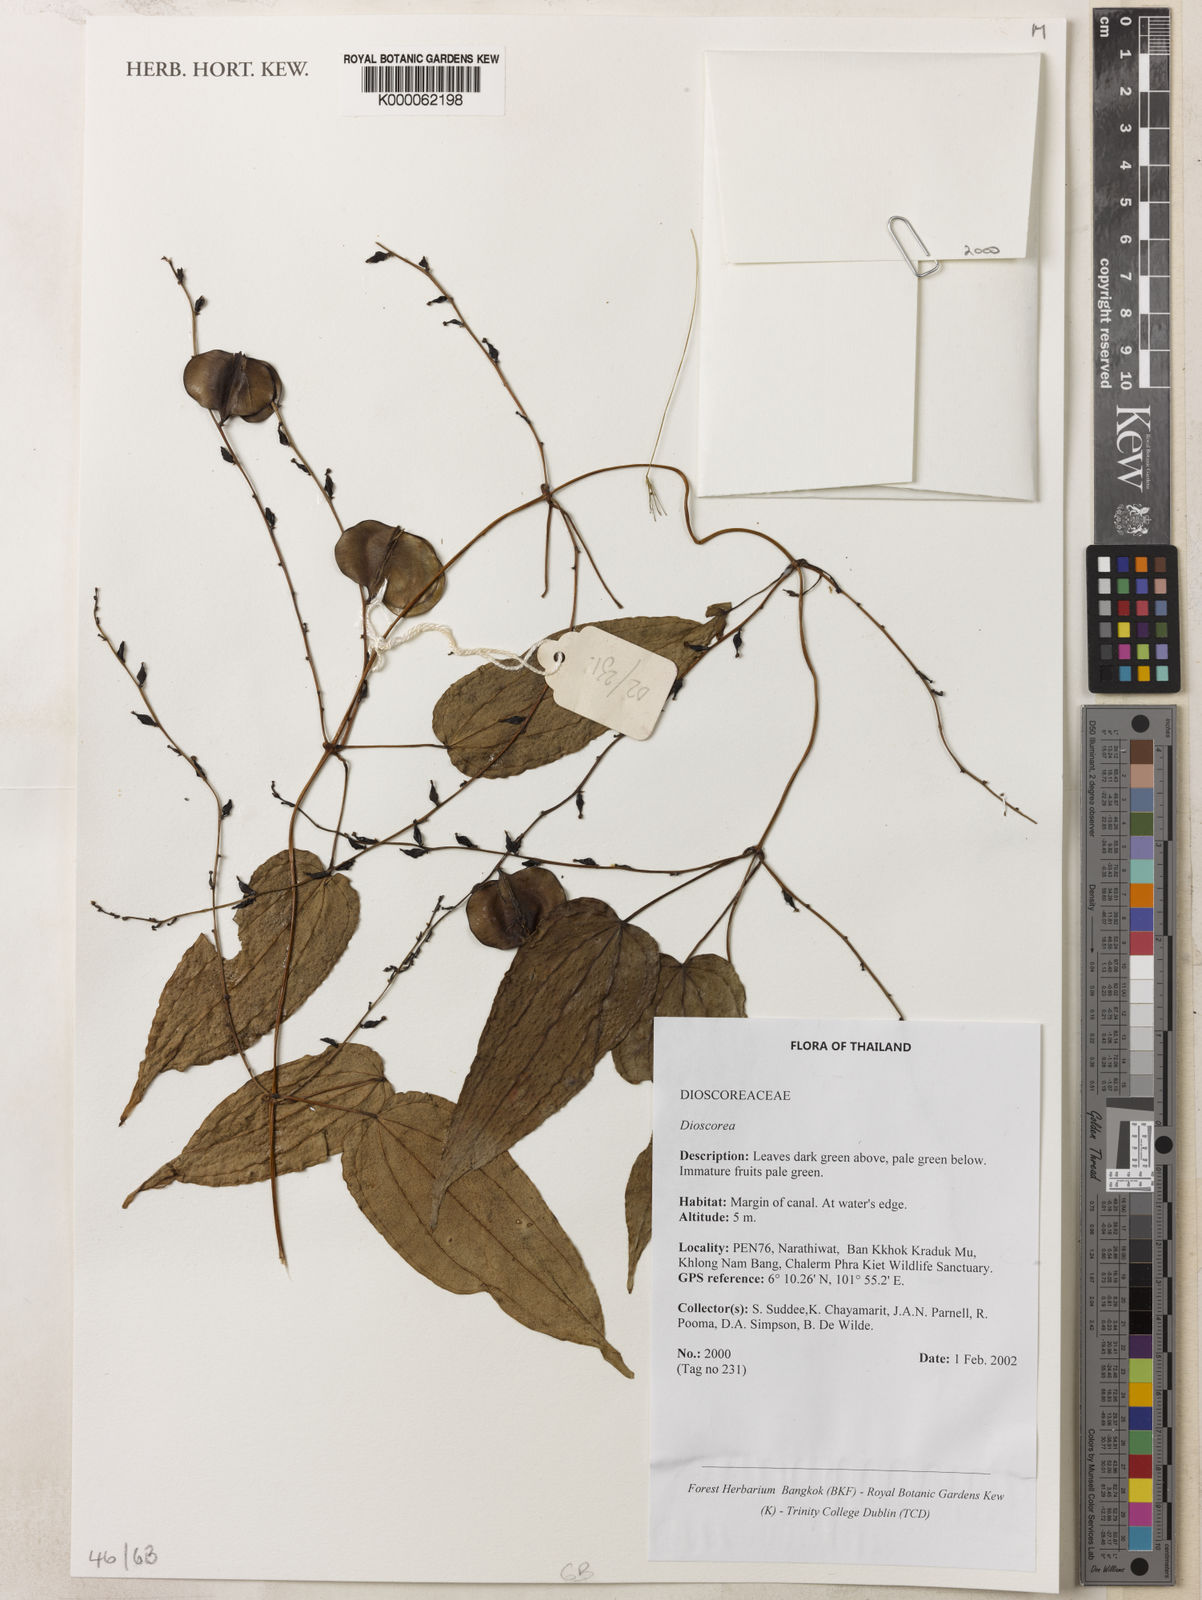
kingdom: Plantae
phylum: Tracheophyta
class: Liliopsida
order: Dioscoreales
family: Dioscoreaceae
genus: Dioscorea
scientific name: Dioscorea
